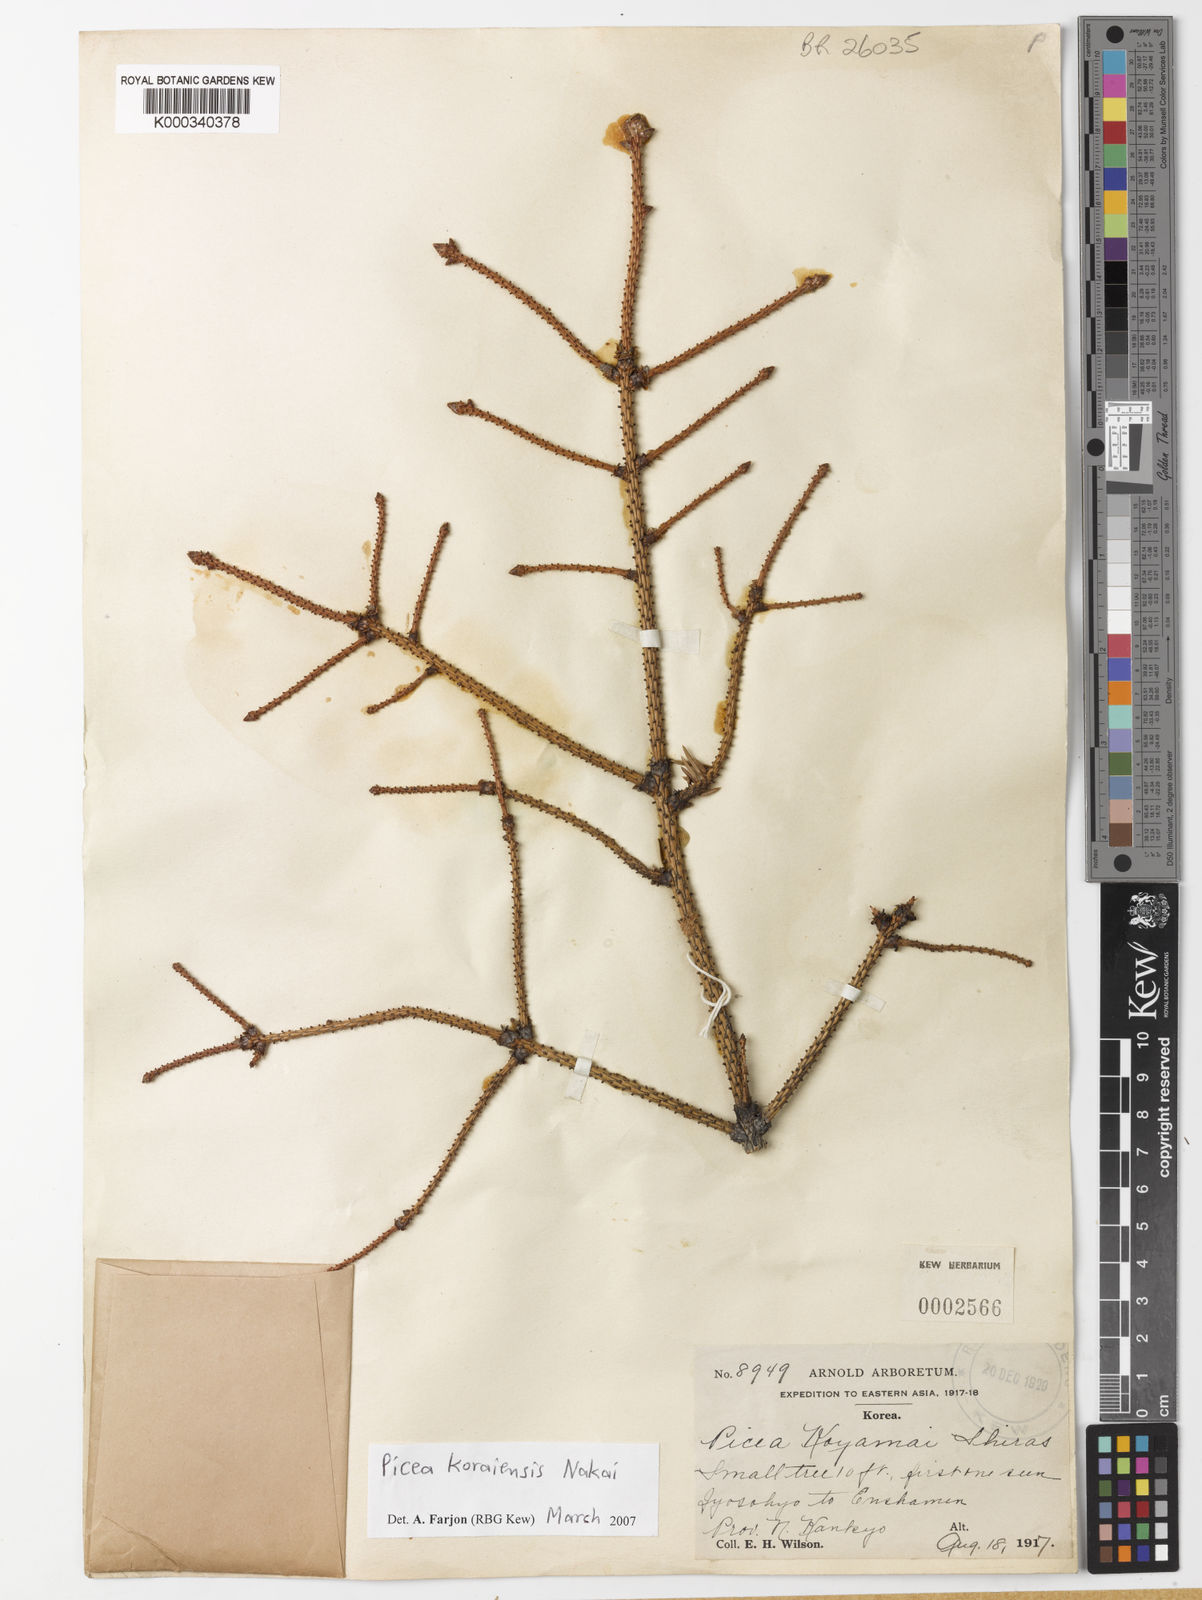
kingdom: Plantae
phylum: Tracheophyta
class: Pinopsida
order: Pinales
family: Pinaceae
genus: Picea
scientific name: Picea koraiensis
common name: Korean spruce
